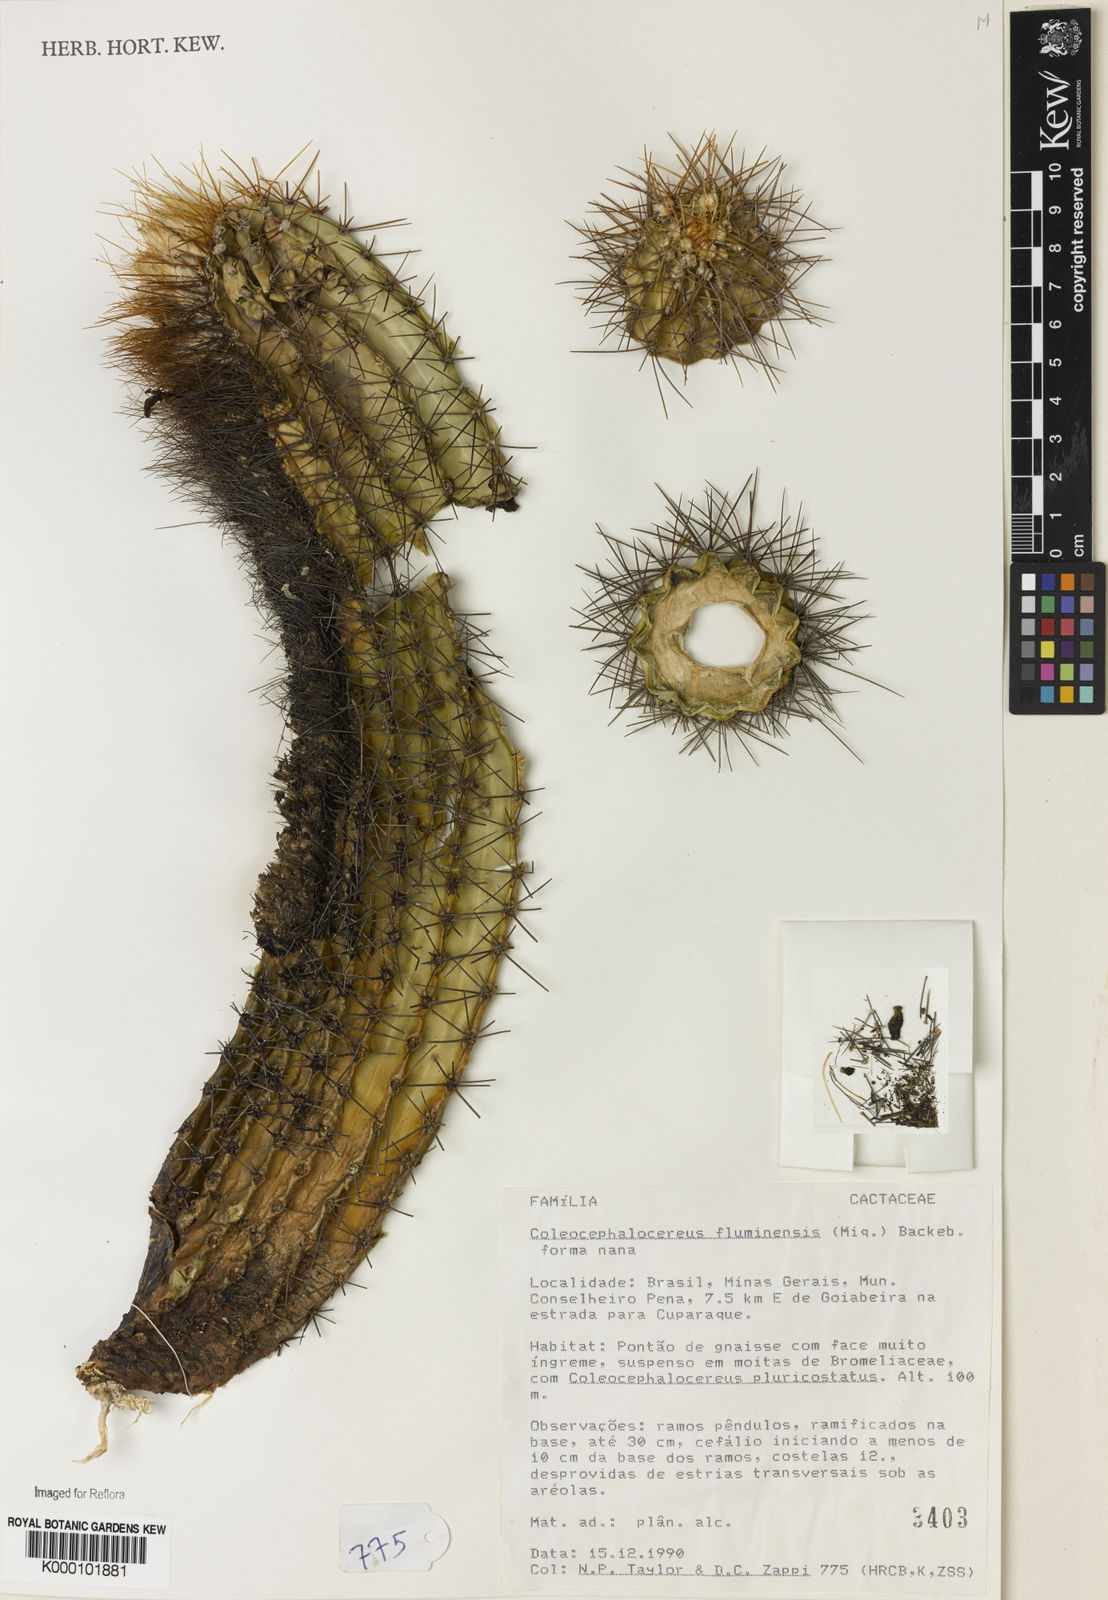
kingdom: Plantae
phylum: Tracheophyta
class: Magnoliopsida
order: Caryophyllales
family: Cactaceae
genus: Coleocephalocereus
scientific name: Coleocephalocereus fluminensis
